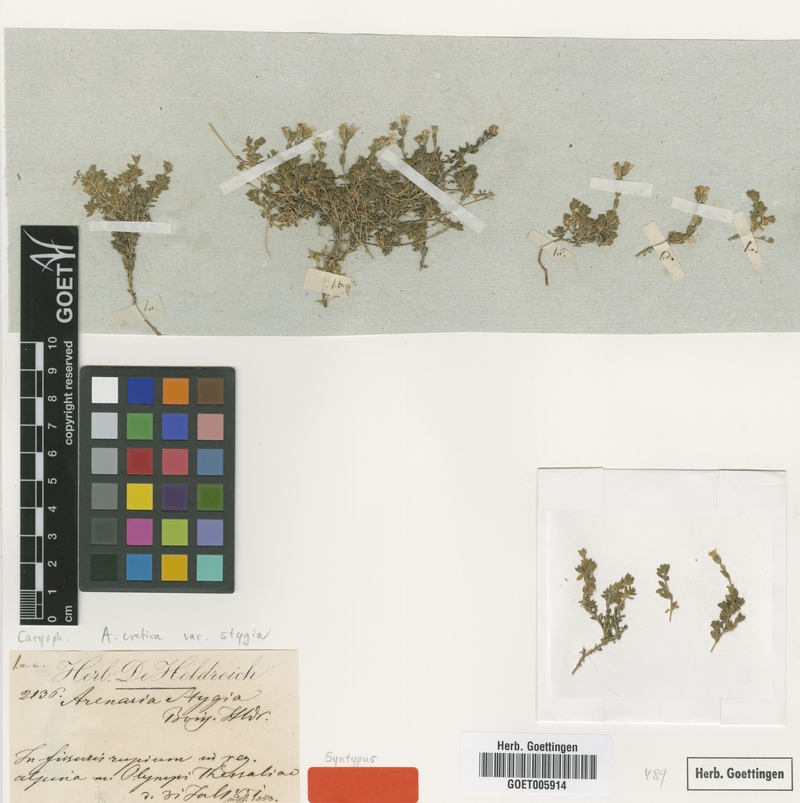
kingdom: Plantae
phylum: Tracheophyta
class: Magnoliopsida
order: Caryophyllales
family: Caryophyllaceae
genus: Arenaria
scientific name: Arenaria cretica
